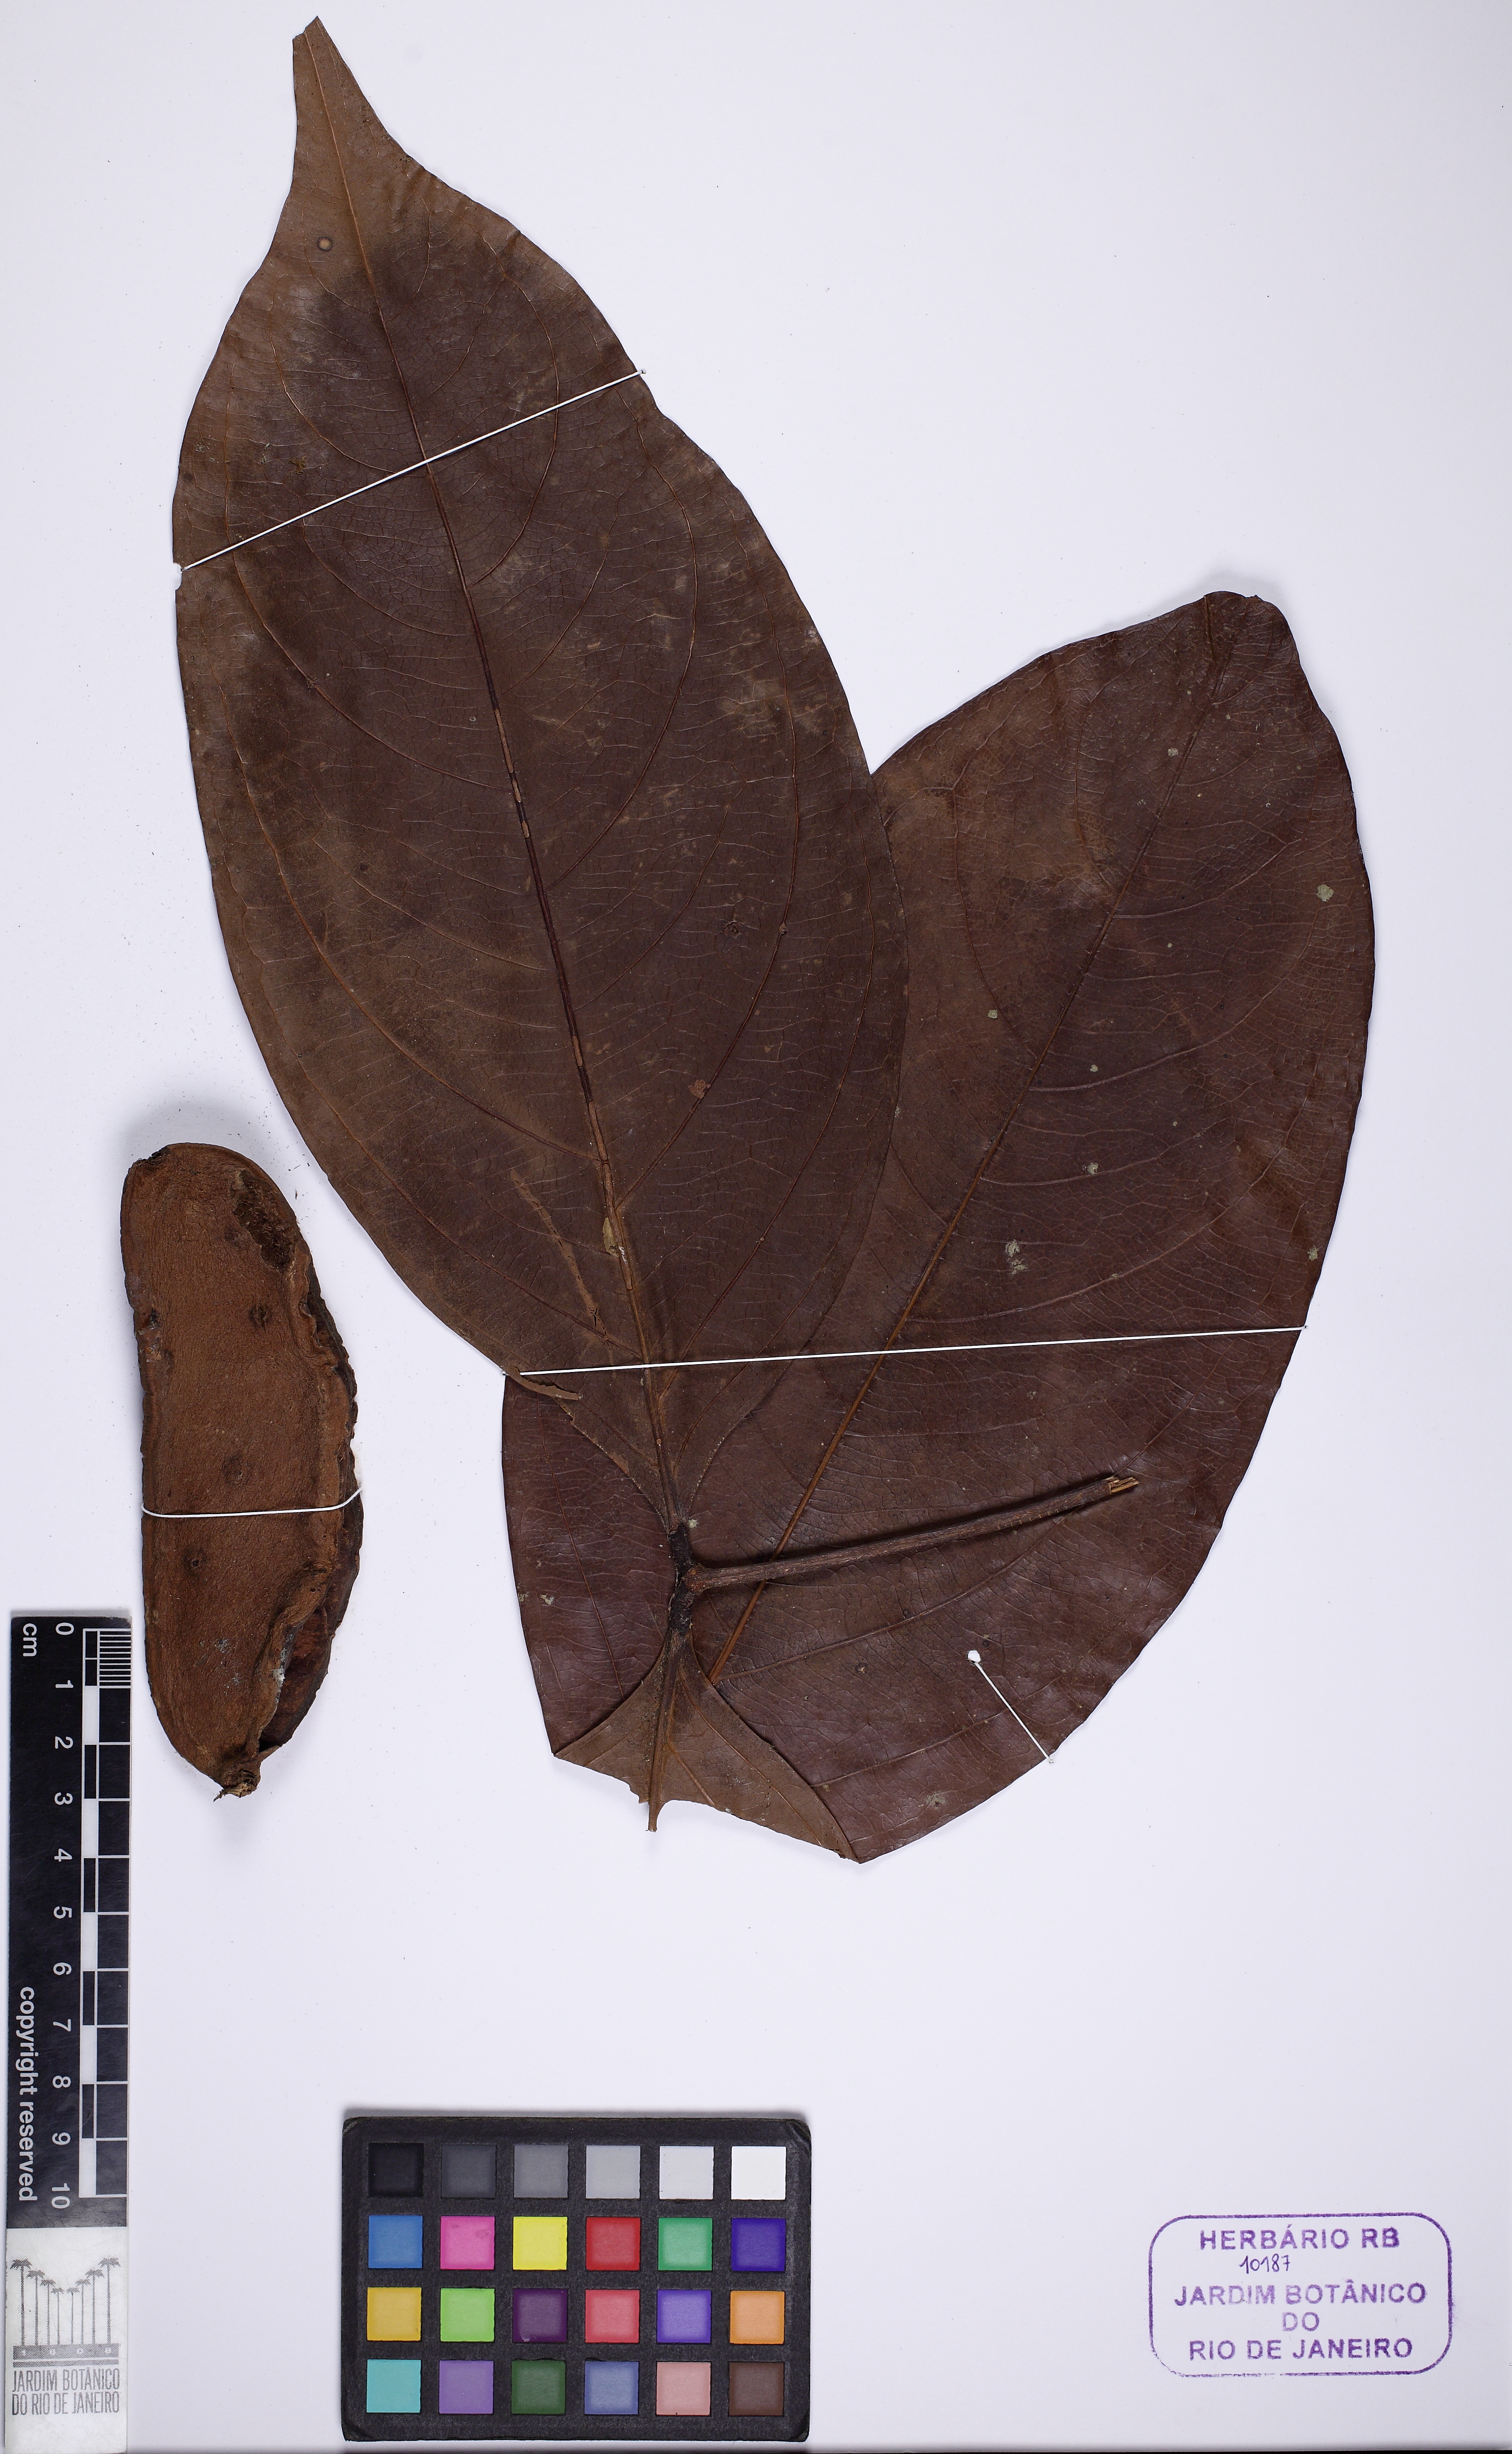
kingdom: Plantae
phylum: Tracheophyta
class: Magnoliopsida
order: Fabales
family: Fabaceae
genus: Zygia
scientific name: Zygia juruana
